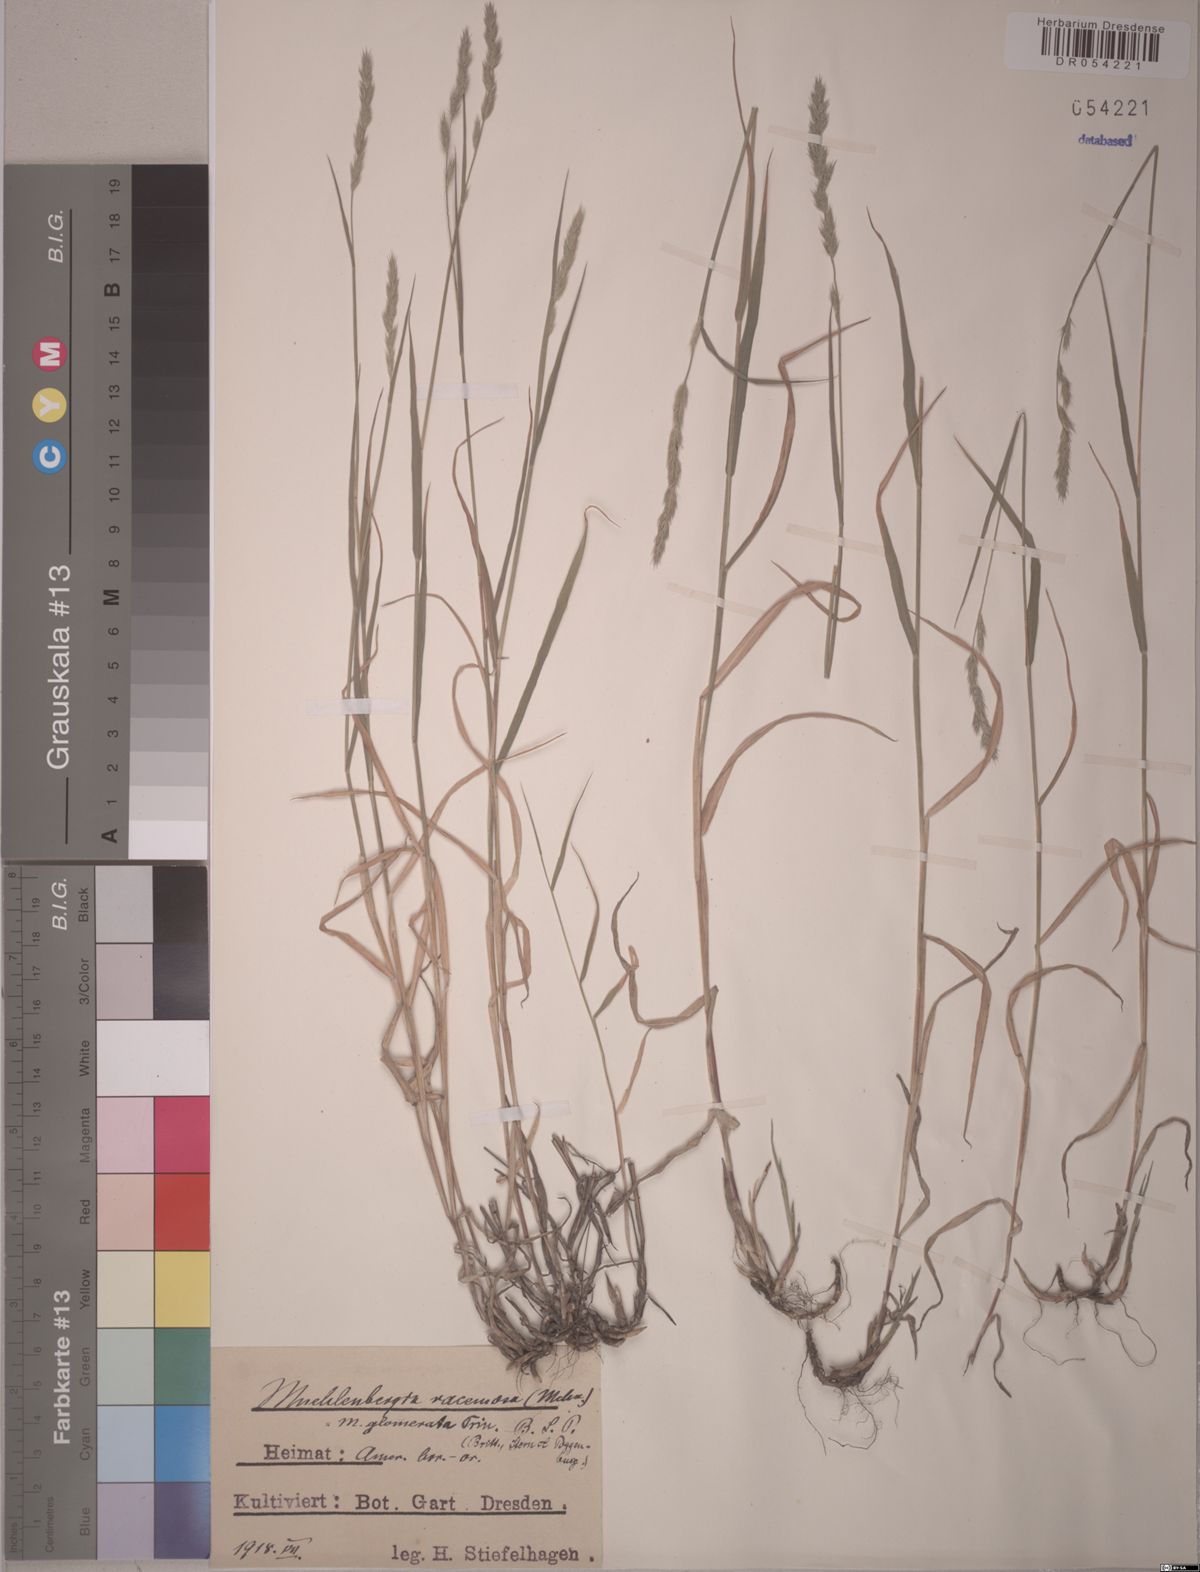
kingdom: Plantae
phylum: Tracheophyta
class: Liliopsida
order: Poales
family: Poaceae
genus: Muhlenbergia
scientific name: Muhlenbergia racemosa
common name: Green muhly
